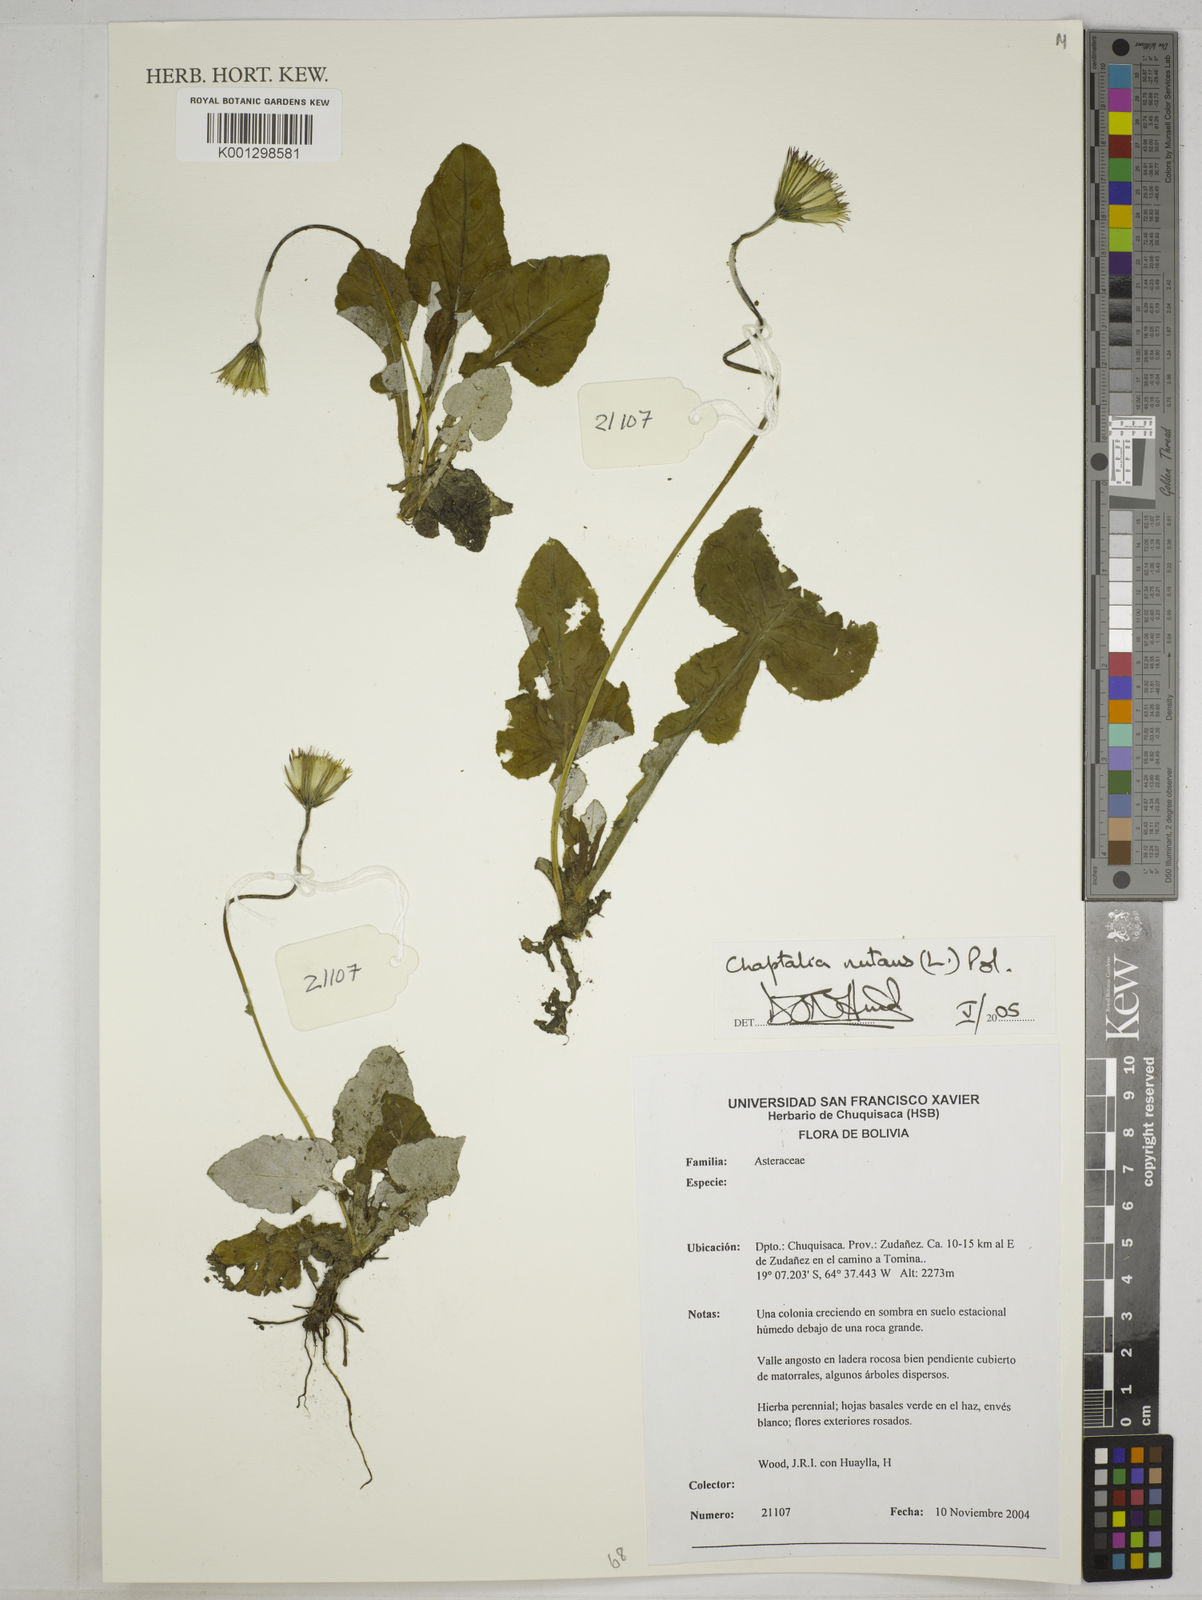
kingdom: Plantae
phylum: Tracheophyta
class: Magnoliopsida
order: Asterales
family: Asteraceae
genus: Chaptalia
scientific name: Chaptalia nutans
